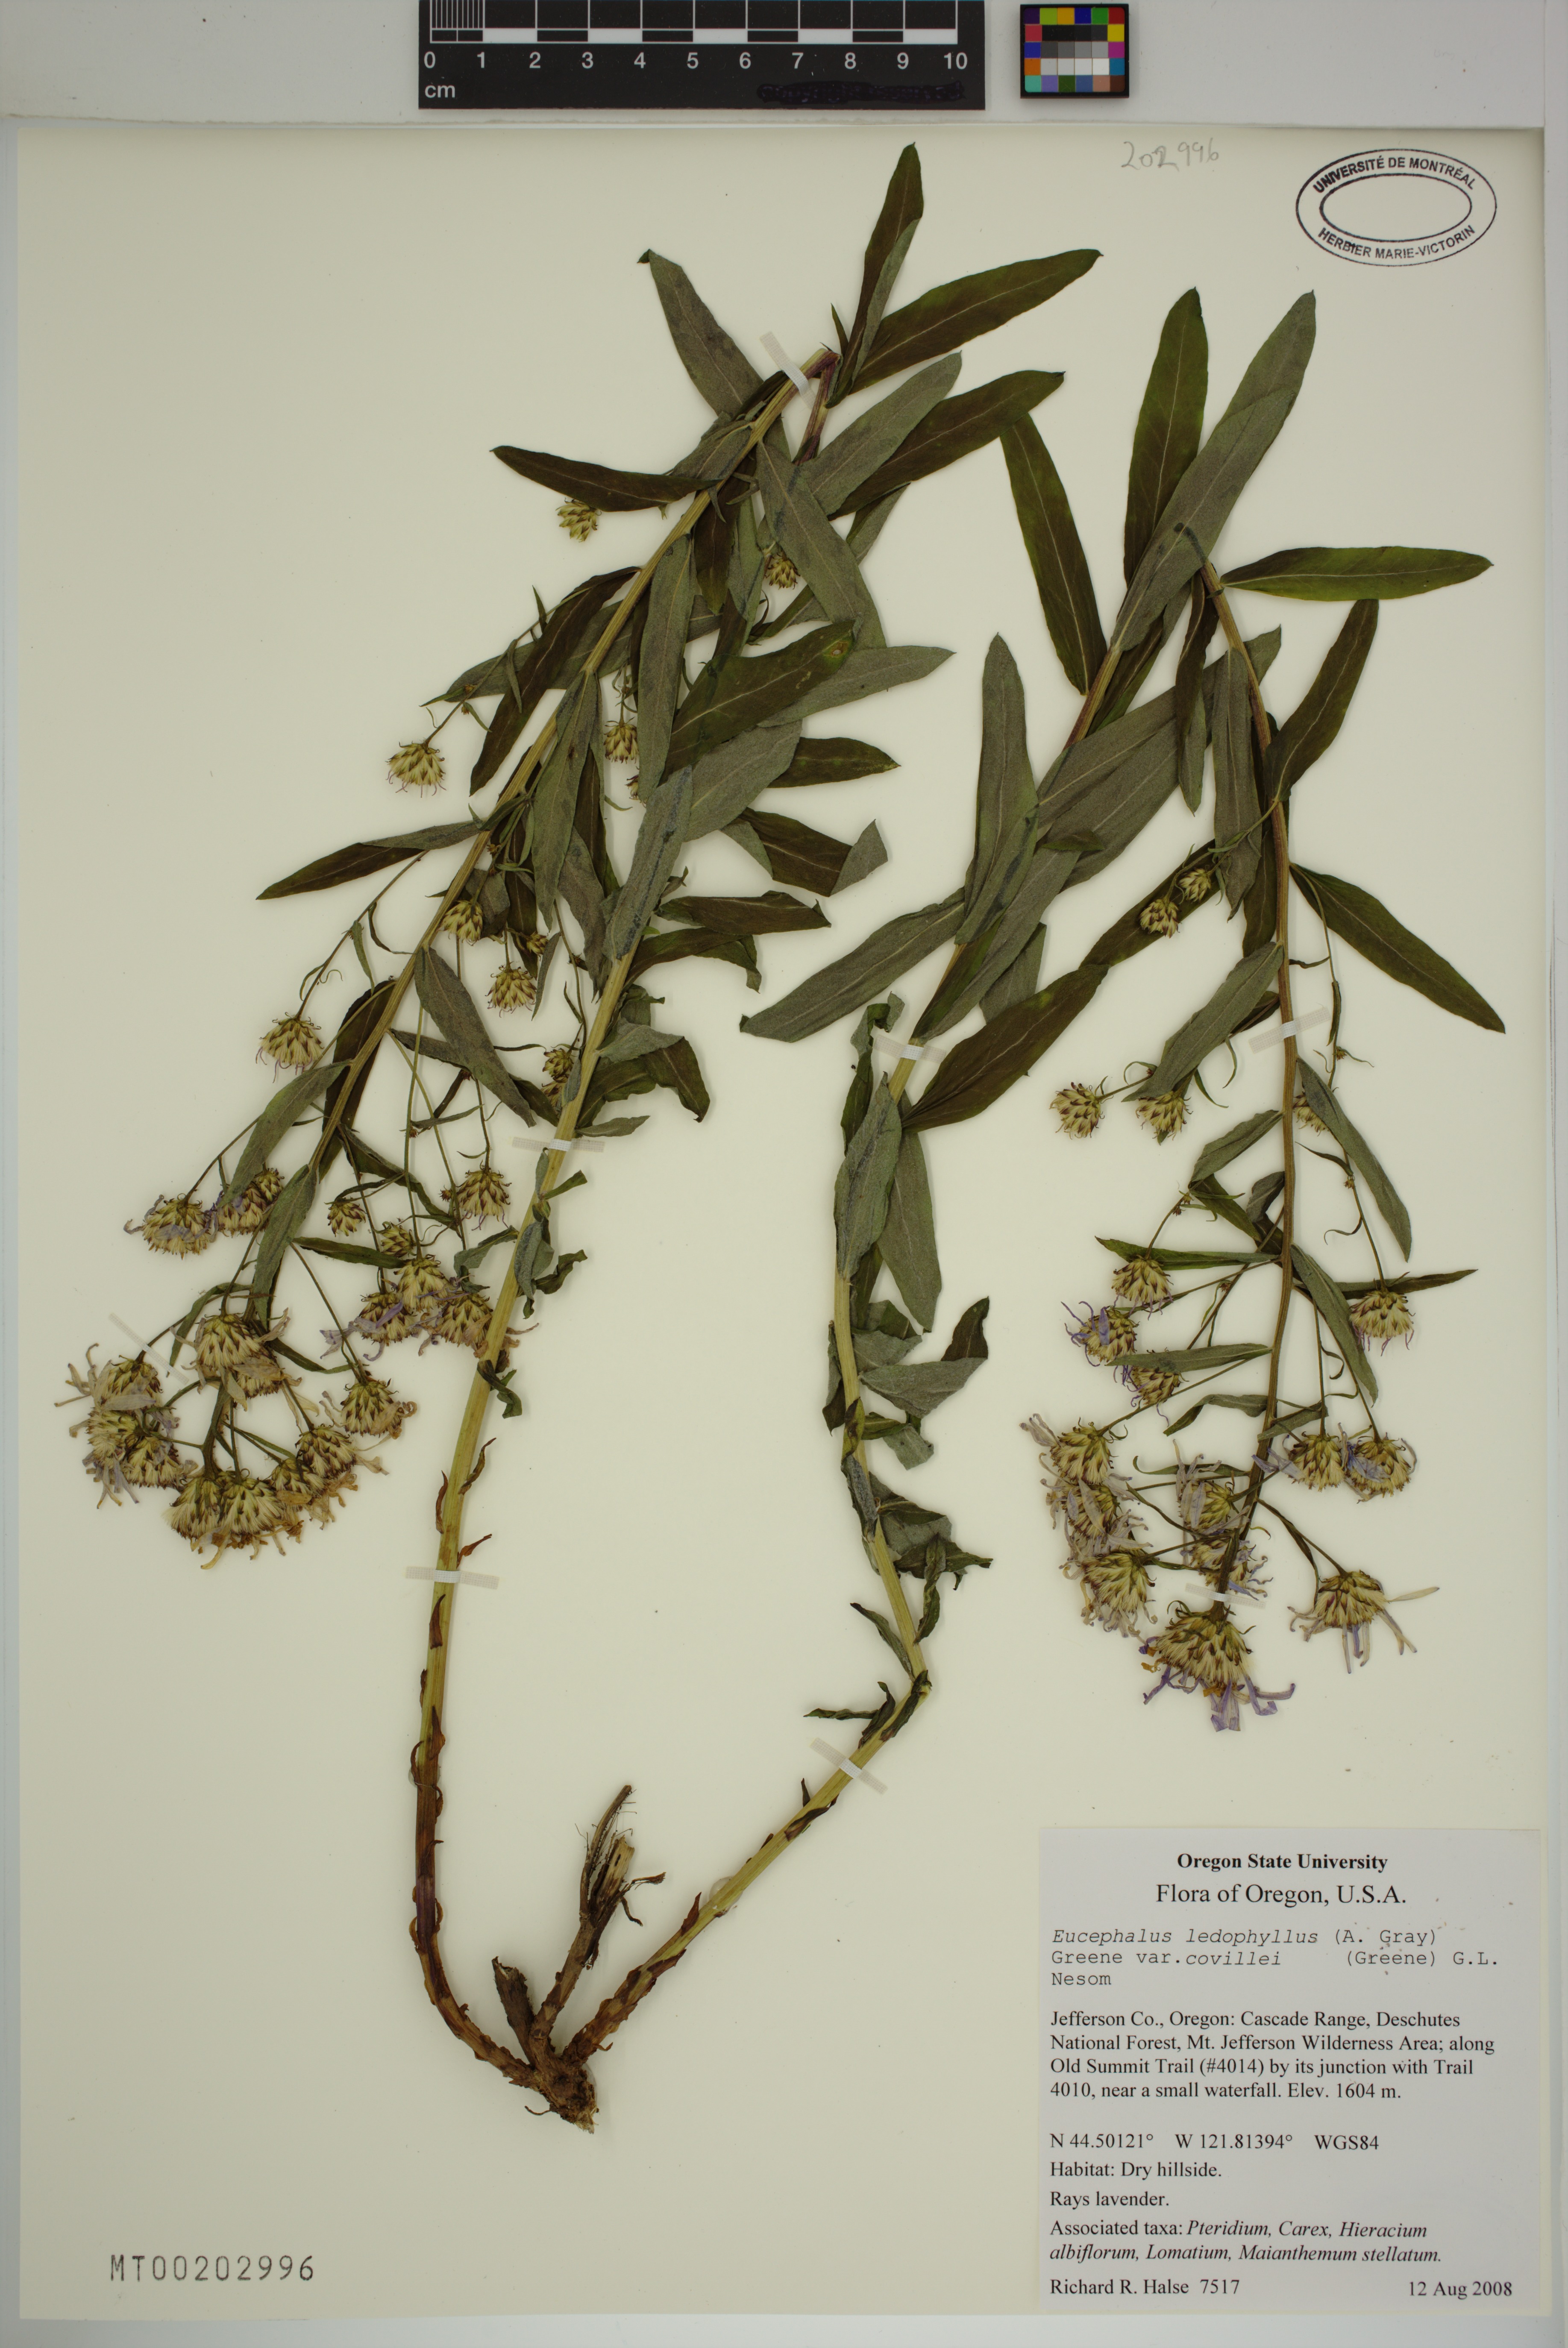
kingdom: Plantae
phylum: Tracheophyta
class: Magnoliopsida
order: Asterales
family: Asteraceae
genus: Eucephalus
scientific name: Eucephalus ledophyllus
